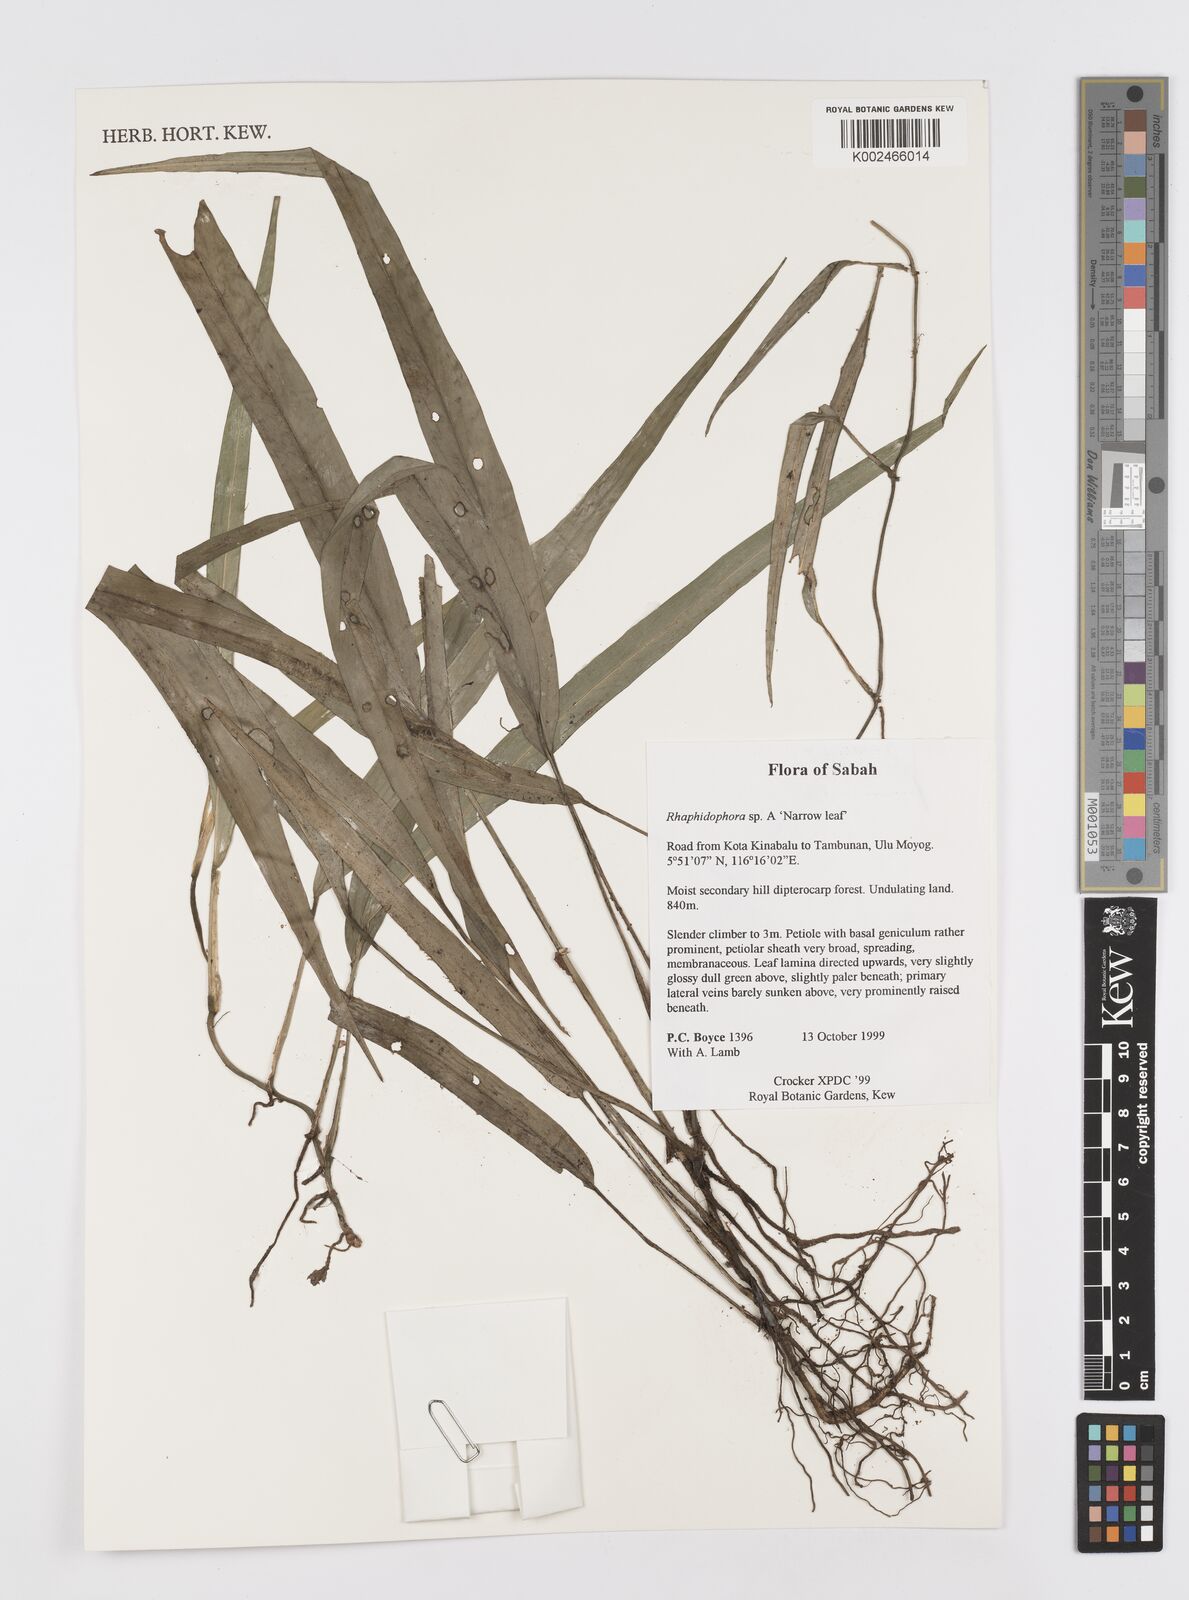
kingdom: Plantae
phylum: Tracheophyta
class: Liliopsida
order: Alismatales
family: Araceae
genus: Rhaphidophora
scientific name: Rhaphidophora
